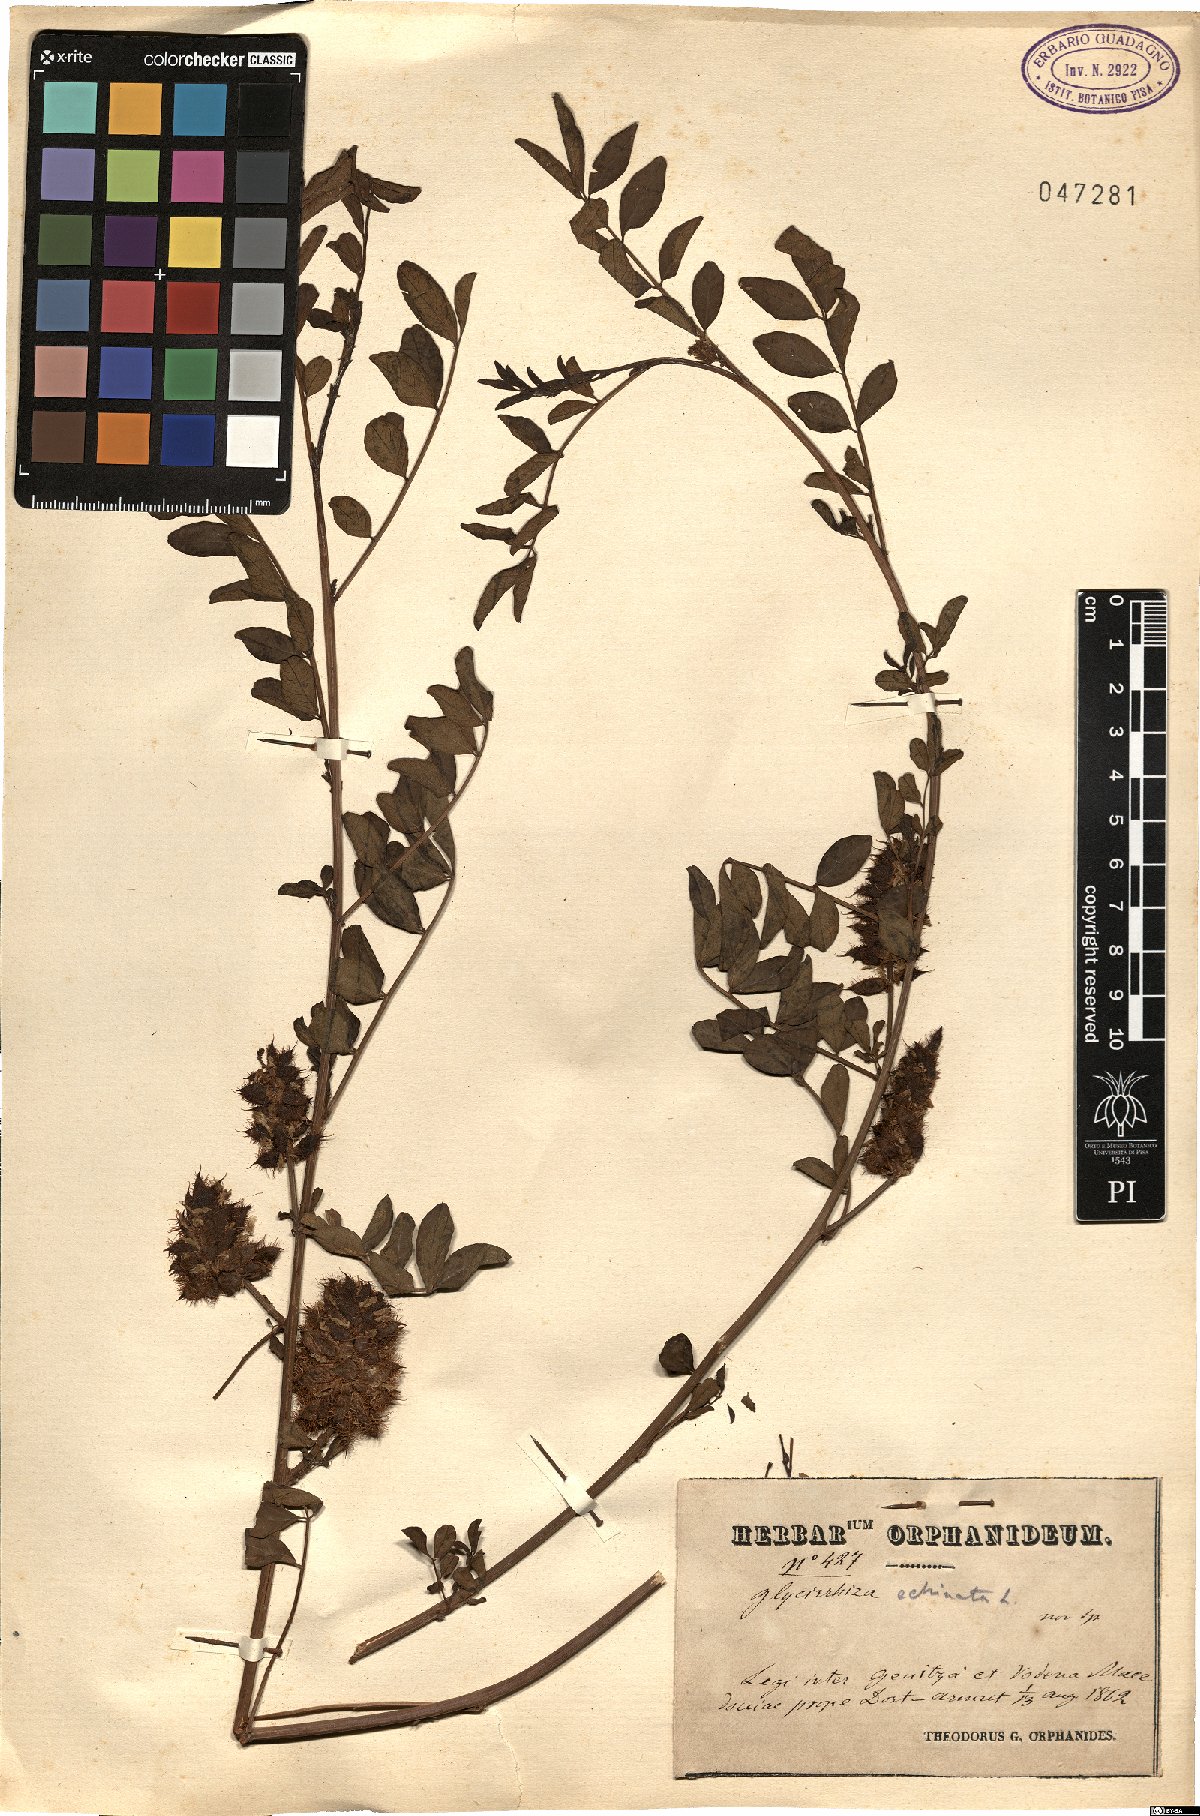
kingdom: Plantae
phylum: Tracheophyta
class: Magnoliopsida
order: Fabales
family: Fabaceae
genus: Glycyrrhiza
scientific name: Glycyrrhiza echinata
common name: German liquorice
